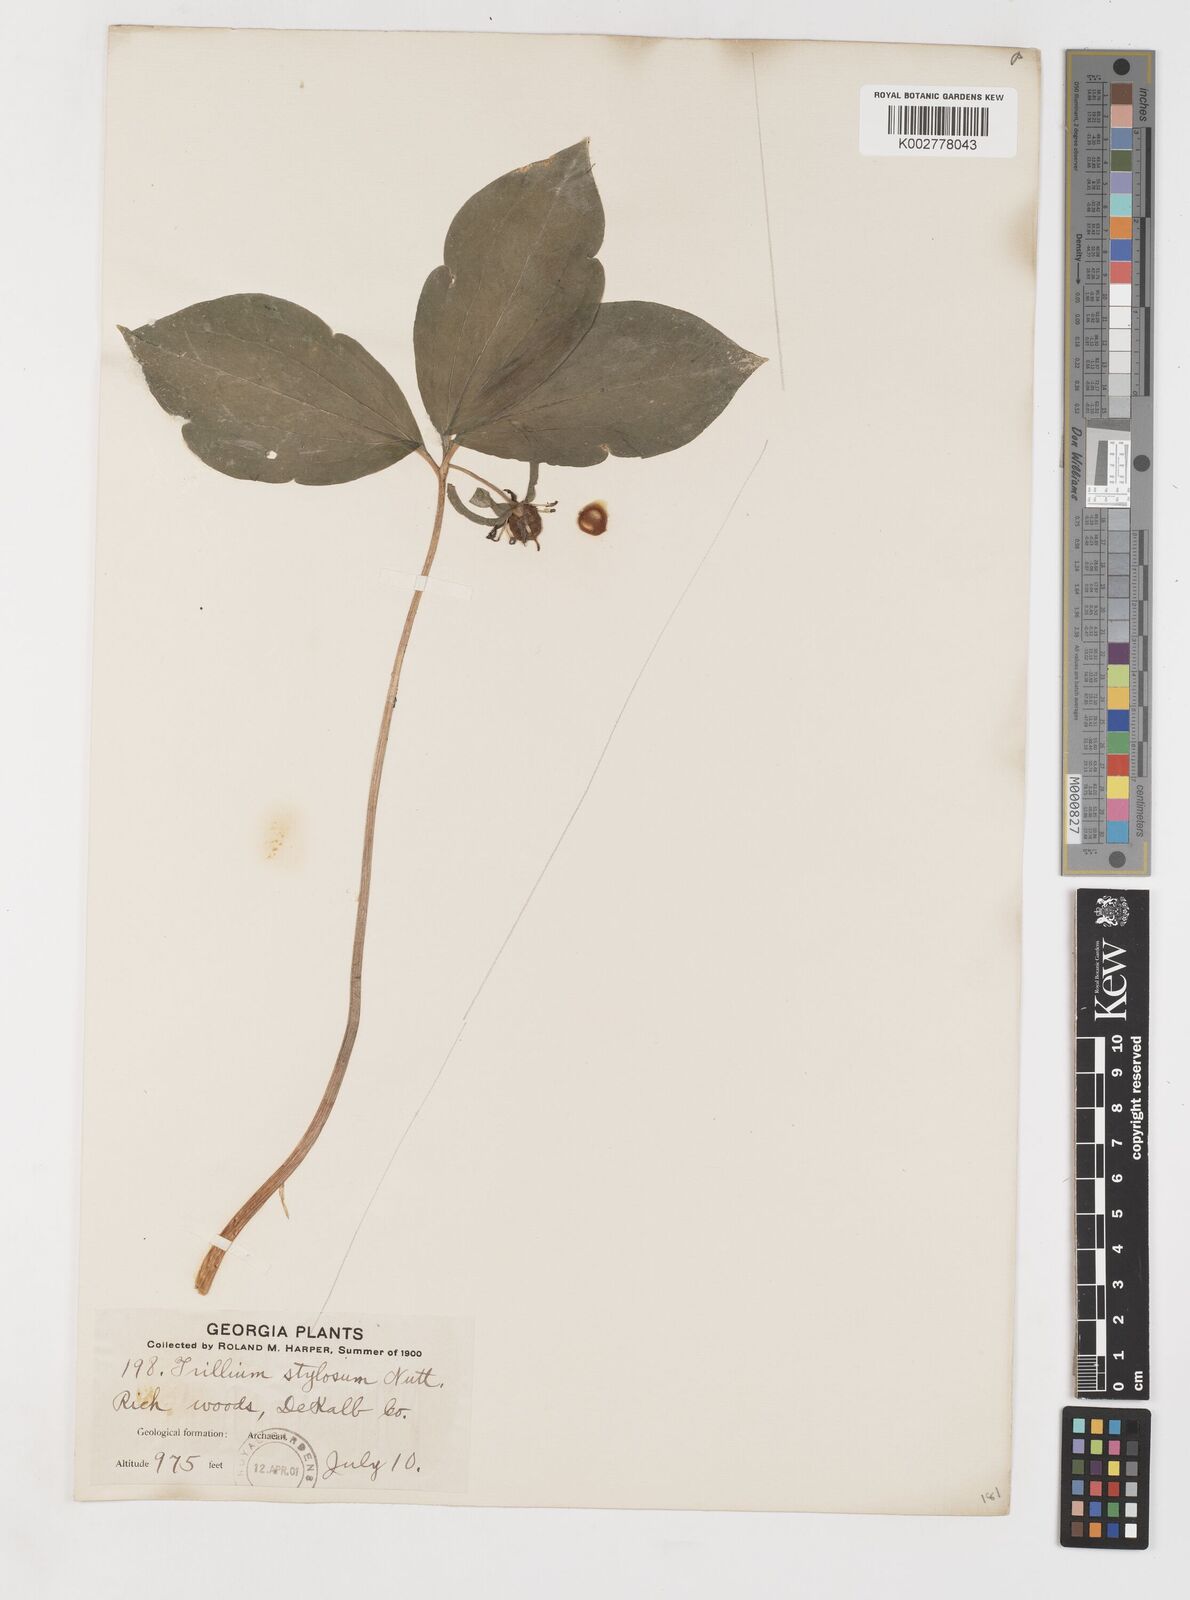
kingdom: Plantae
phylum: Tracheophyta
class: Liliopsida
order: Liliales
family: Melanthiaceae
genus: Trillium
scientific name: Trillium catesbaei
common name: Bashful trillium
